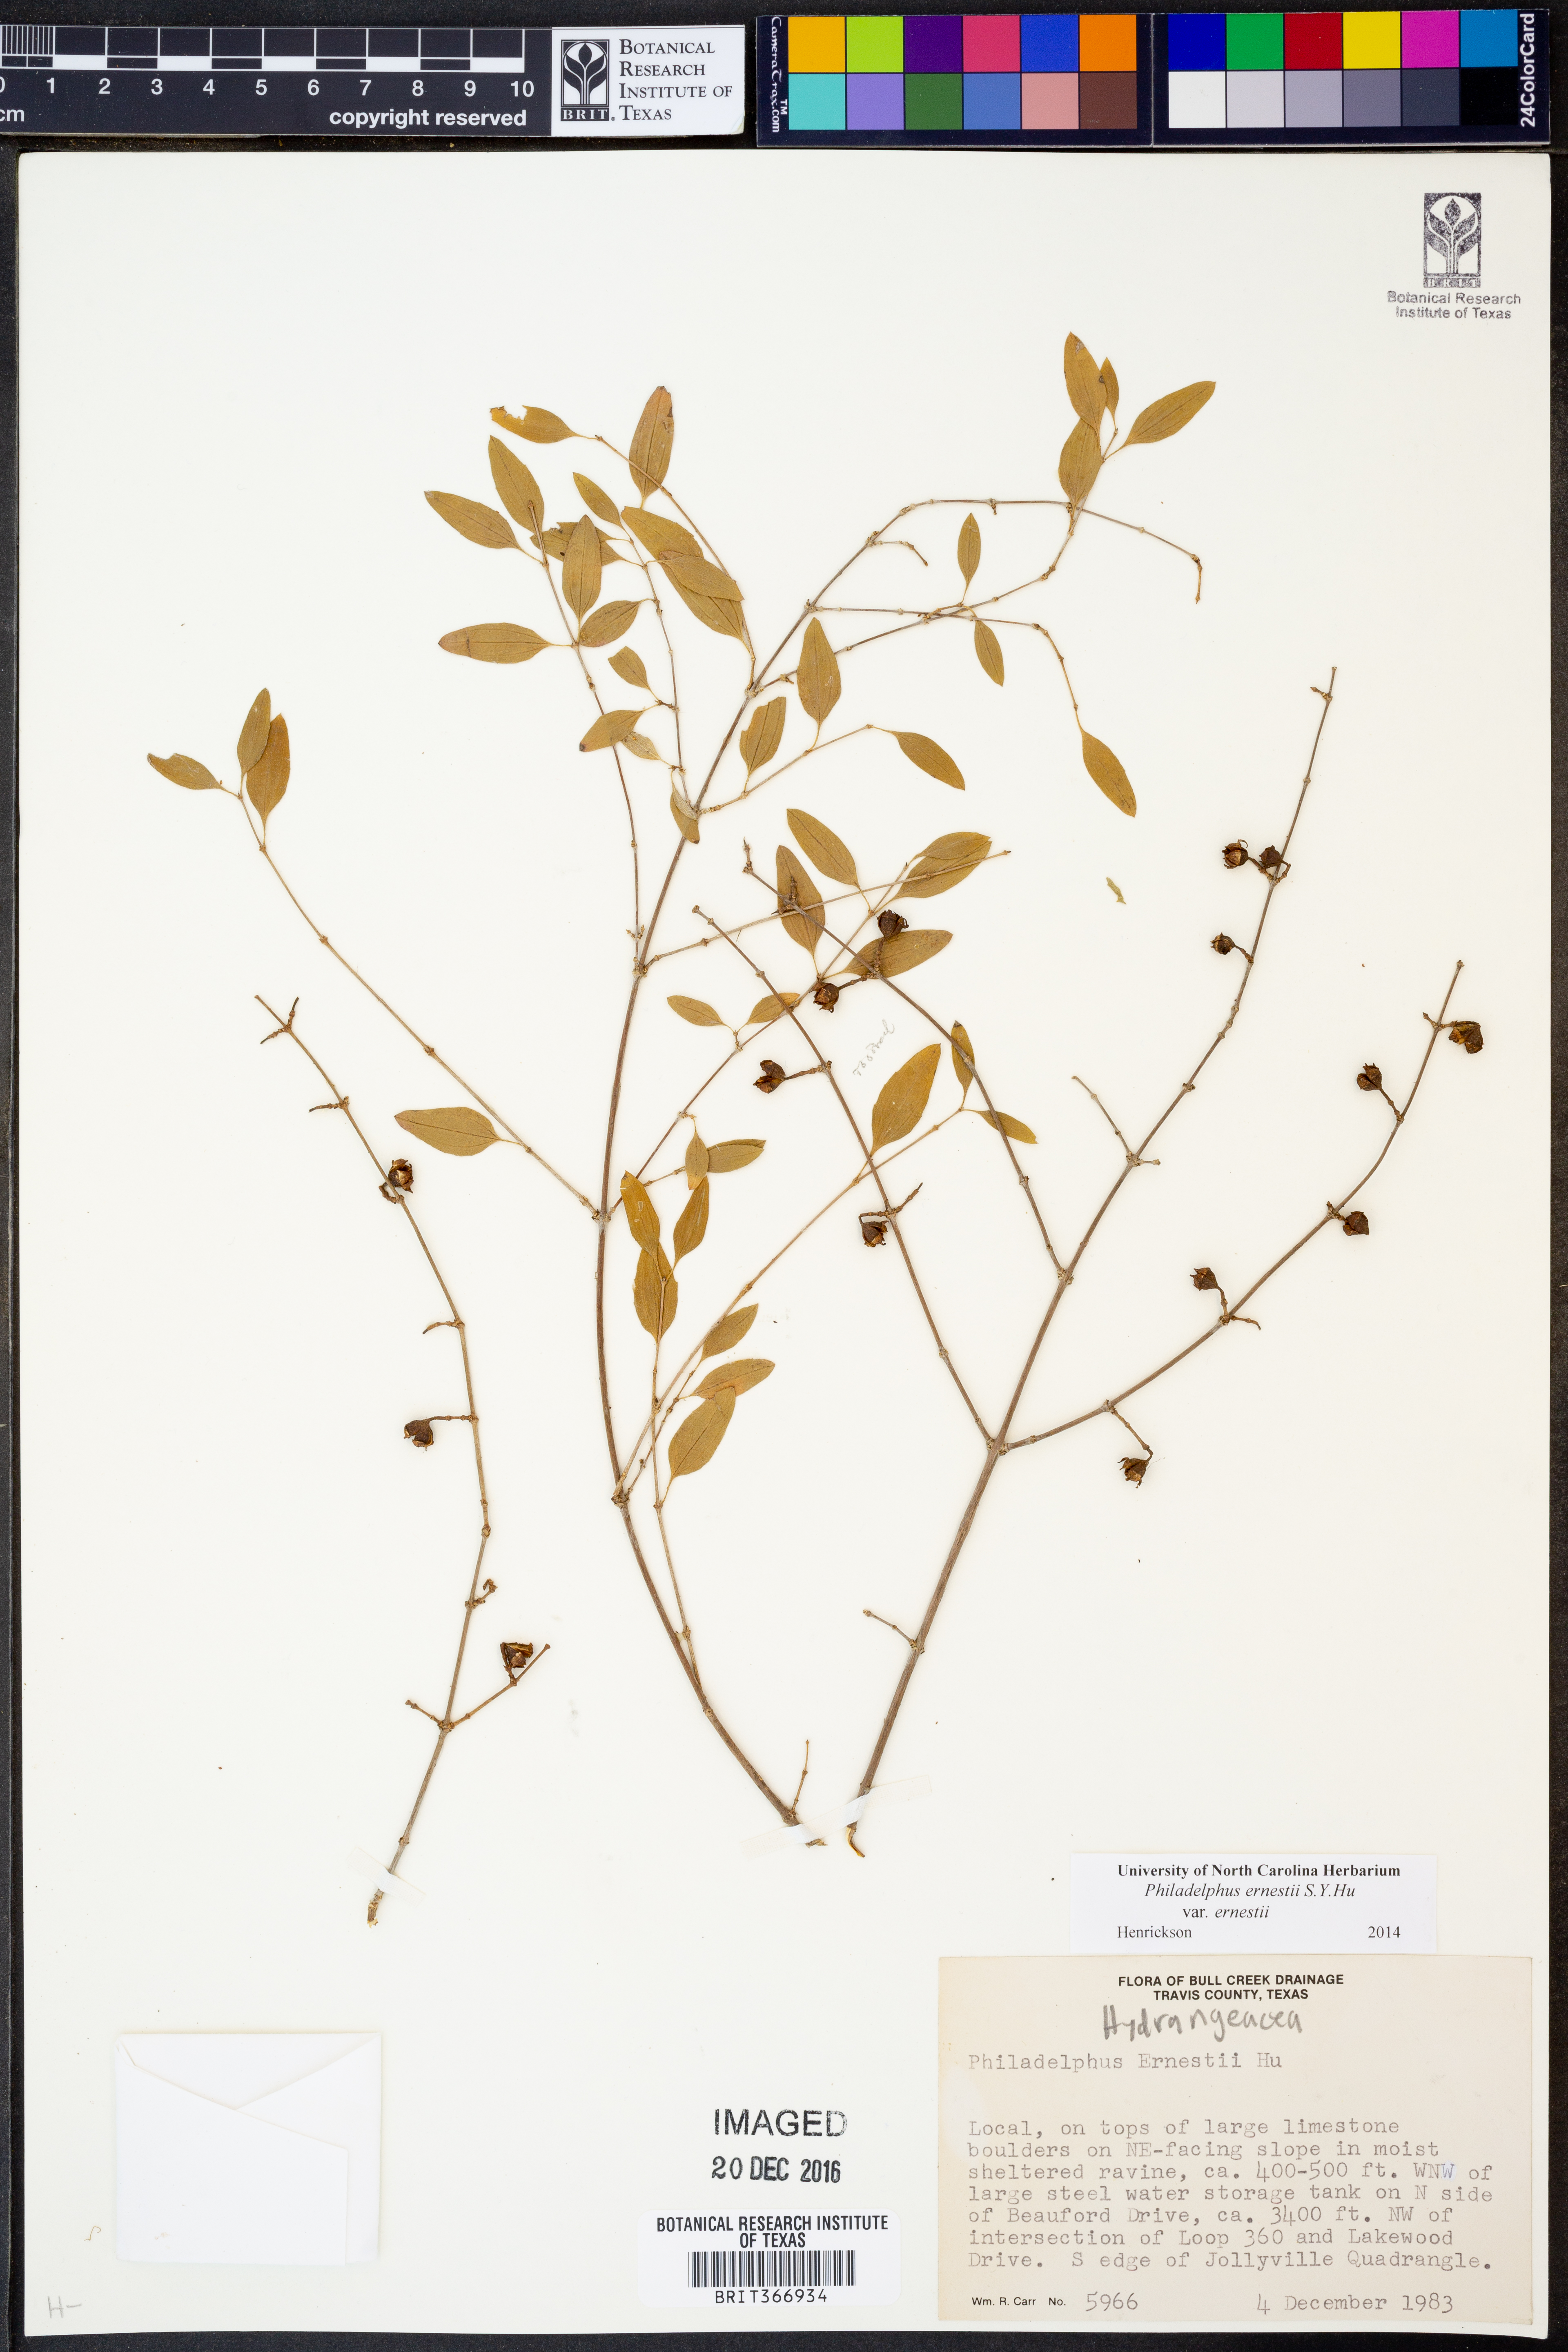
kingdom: Plantae
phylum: Tracheophyta
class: Magnoliopsida
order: Cornales
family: Hydrangeaceae
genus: Philadelphus
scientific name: Philadelphus texensis
